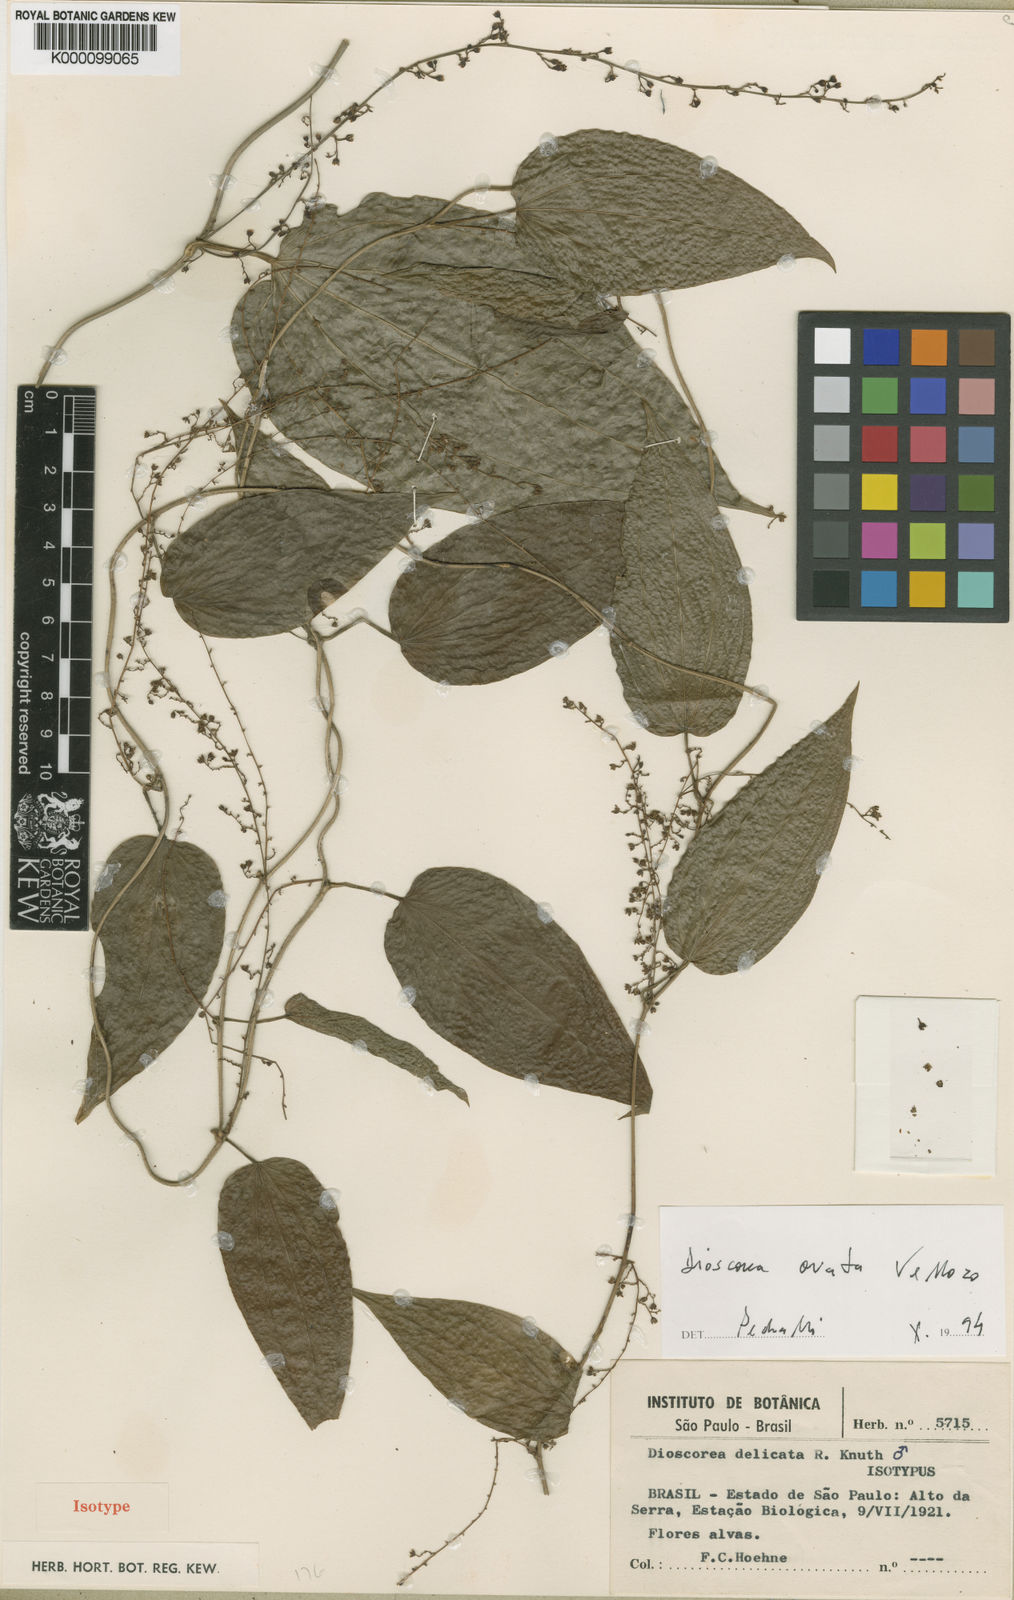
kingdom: Plantae
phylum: Tracheophyta
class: Liliopsida
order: Dioscoreales
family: Dioscoreaceae
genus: Dioscorea
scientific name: Dioscorea delicata
